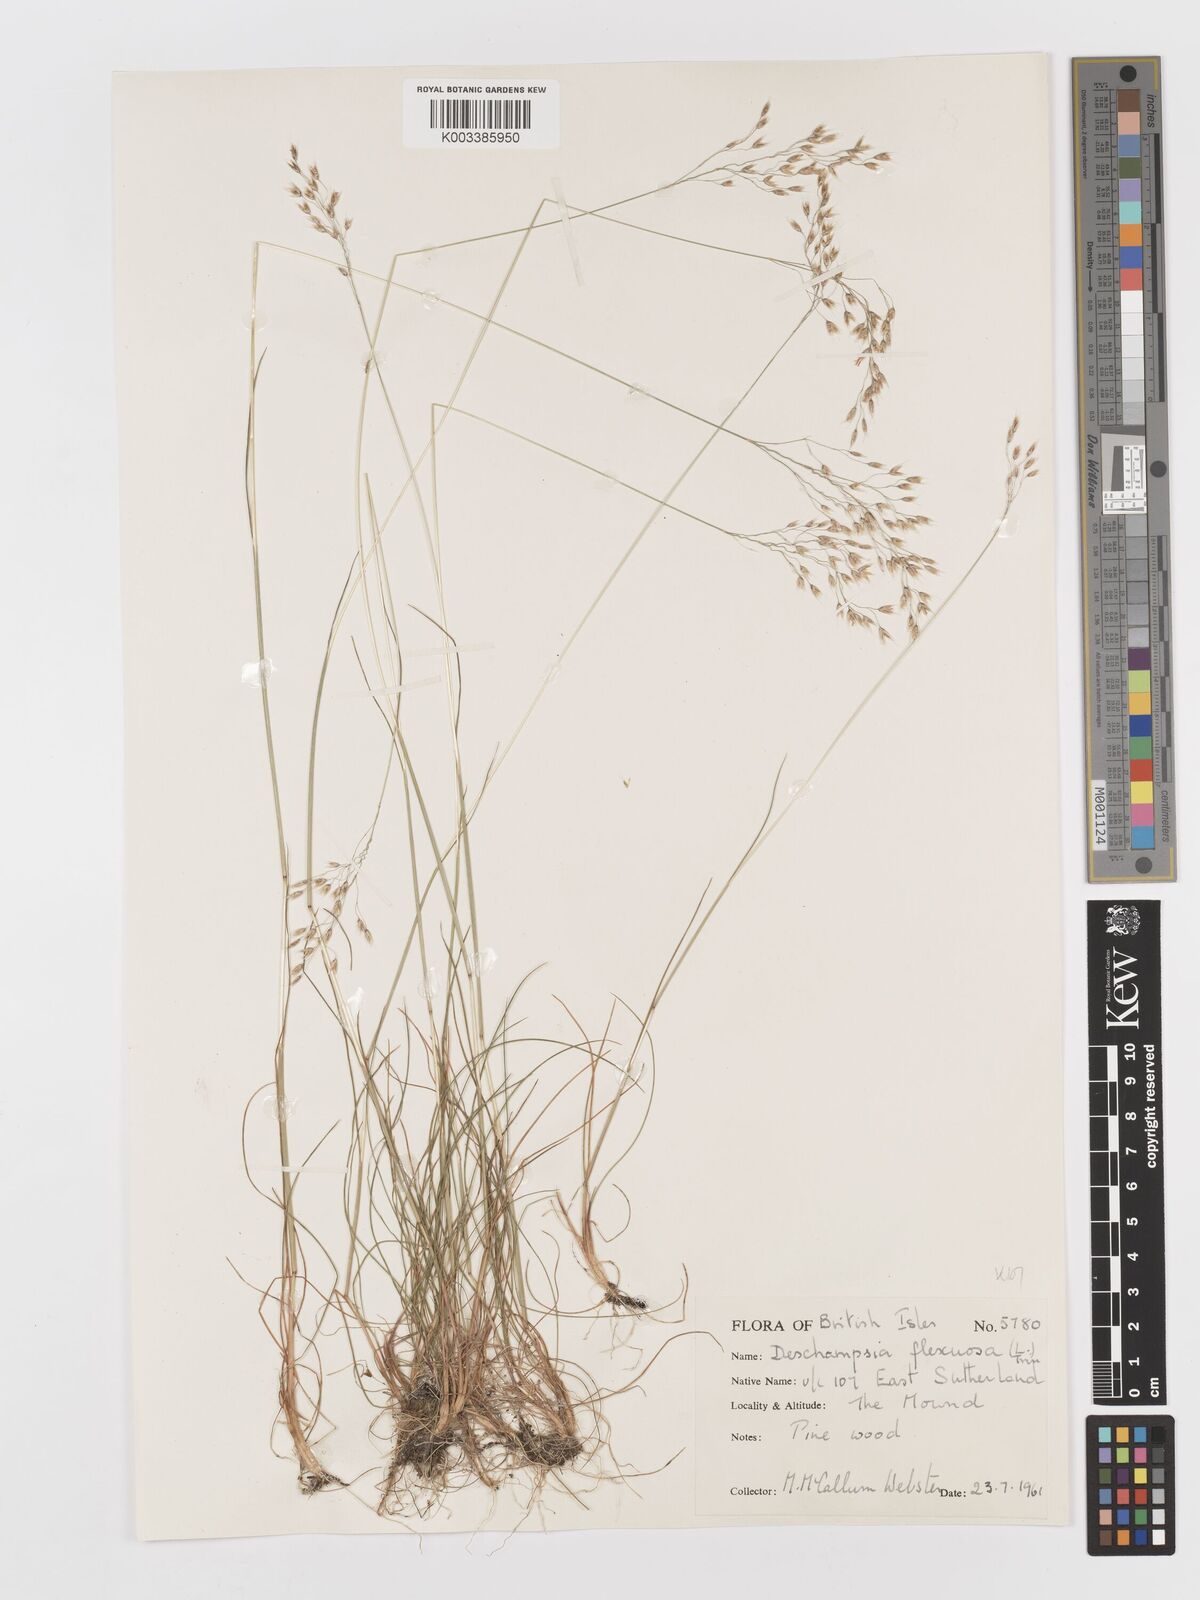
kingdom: Plantae
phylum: Tracheophyta
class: Liliopsida
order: Poales
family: Poaceae
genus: Avenella
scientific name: Avenella flexuosa
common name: Wavy hairgrass
